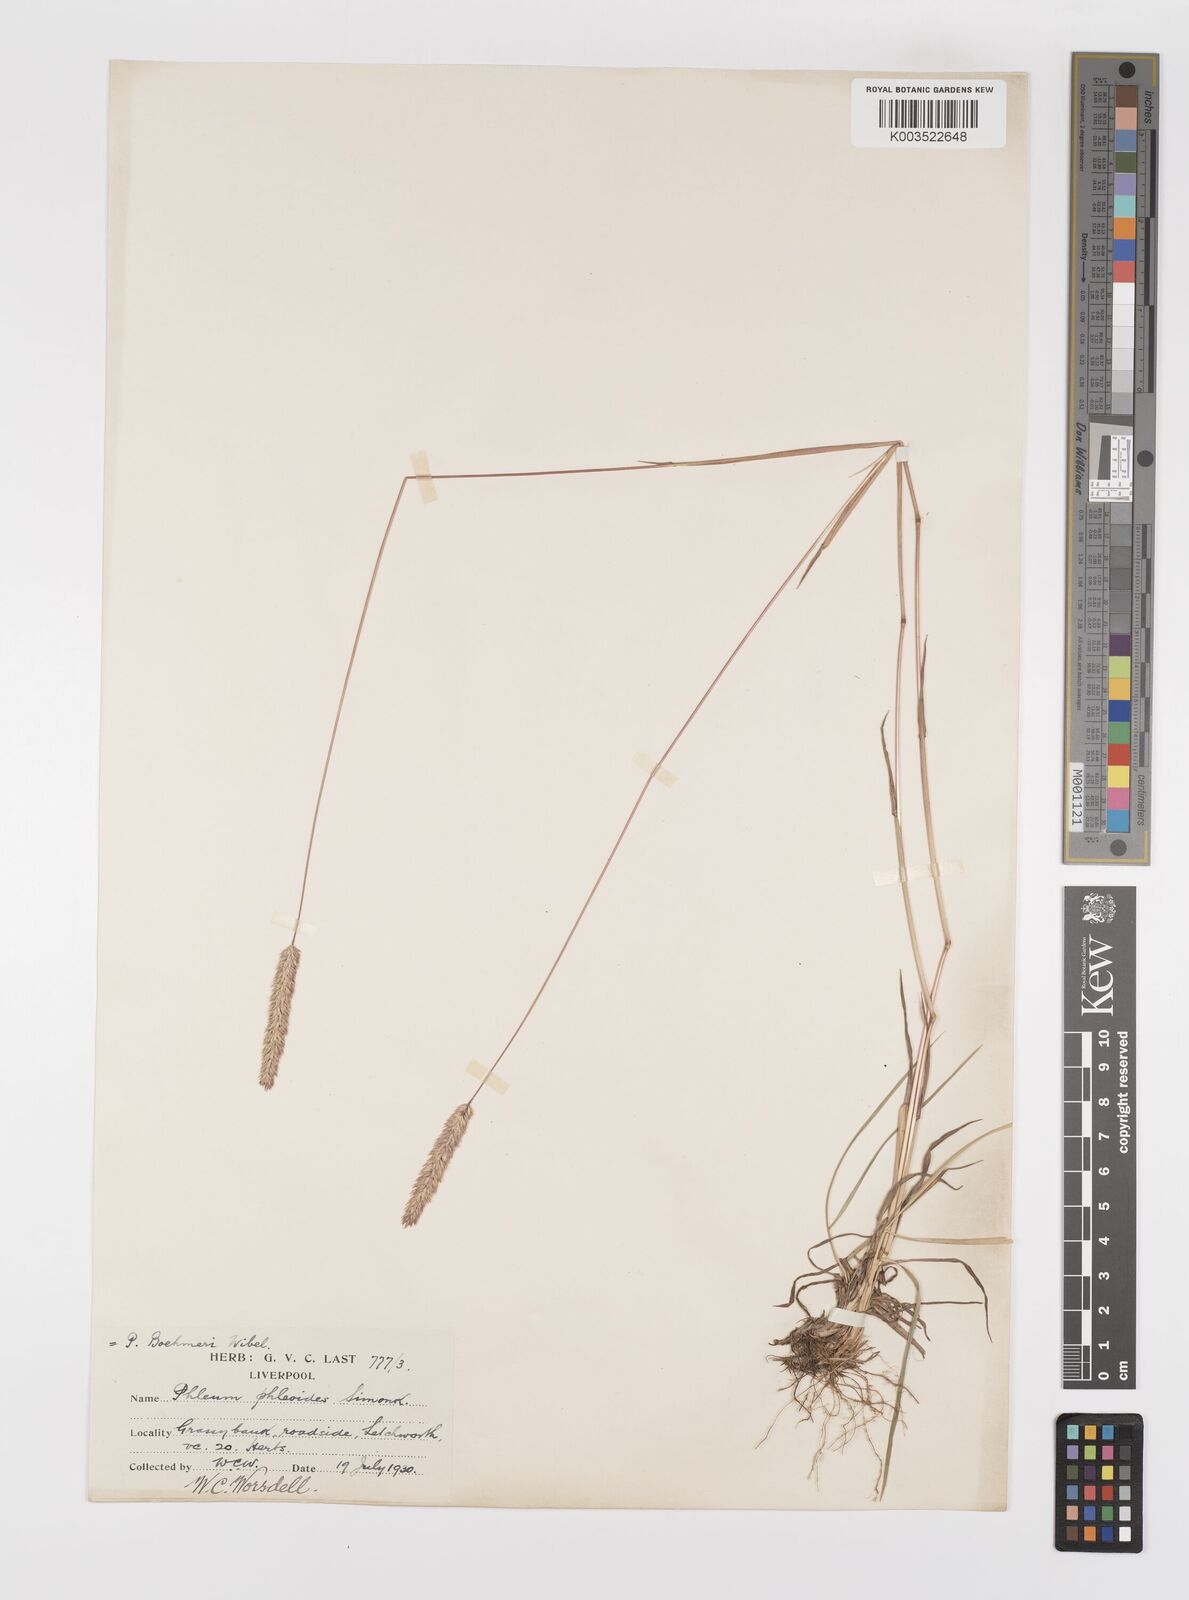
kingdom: Plantae
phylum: Tracheophyta
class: Liliopsida
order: Poales
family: Poaceae
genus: Phleum
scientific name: Phleum phleoides
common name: Purple-stem cat's-tail
